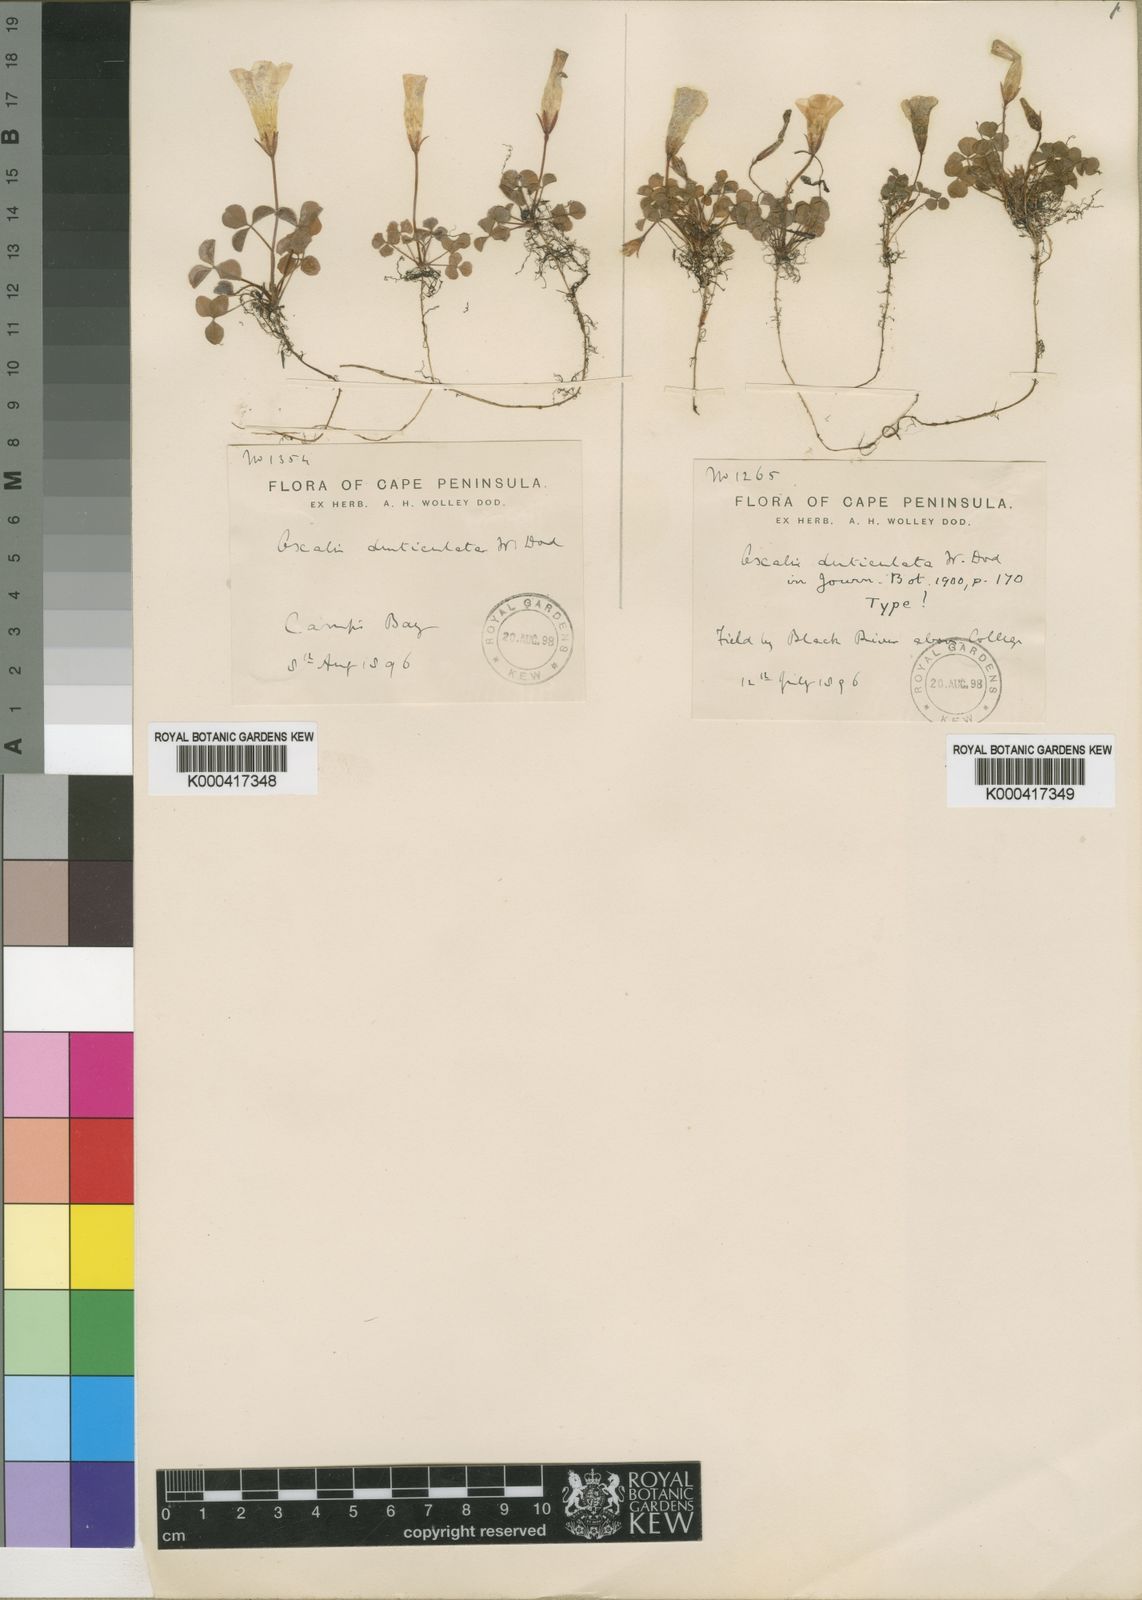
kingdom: Plantae
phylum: Tracheophyta
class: Magnoliopsida
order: Oxalidales
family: Oxalidaceae
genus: Oxalis
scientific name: Oxalis nidulans
